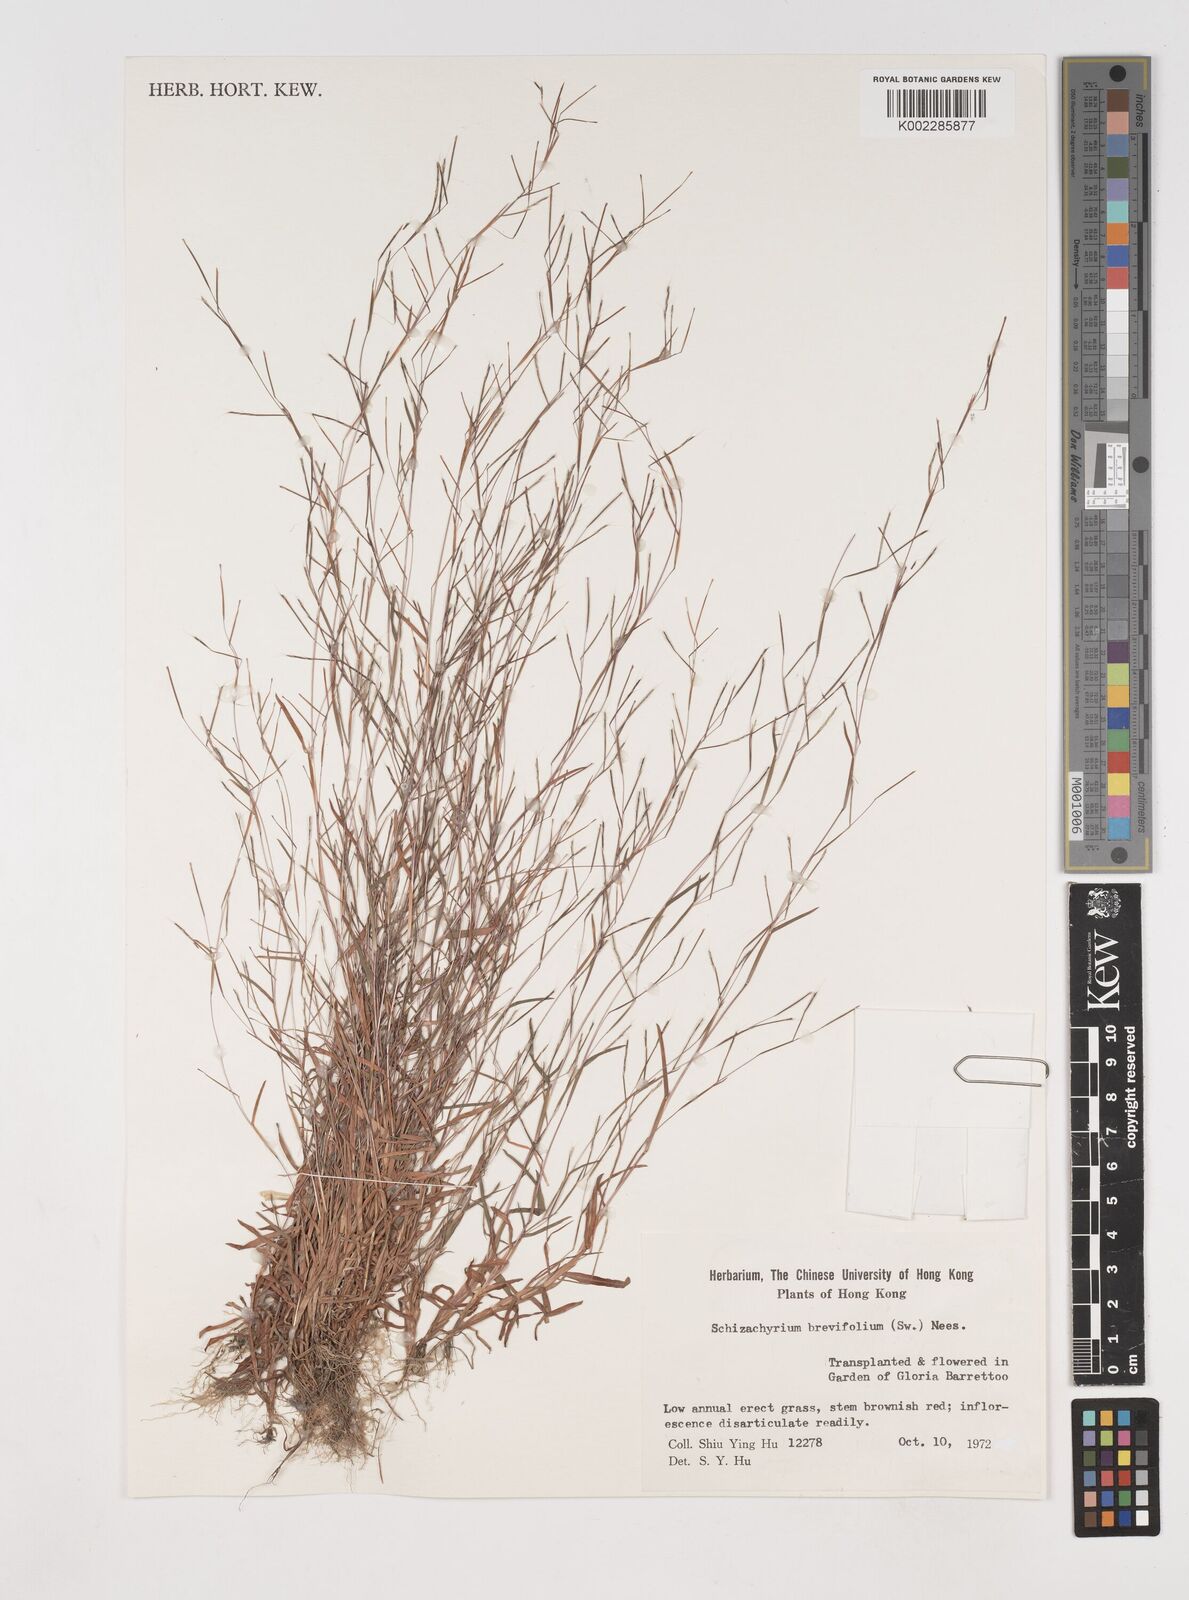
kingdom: Plantae
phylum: Tracheophyta
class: Liliopsida
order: Poales
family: Poaceae
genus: Schizachyrium
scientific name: Schizachyrium brevifolium
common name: Serillo dulce
